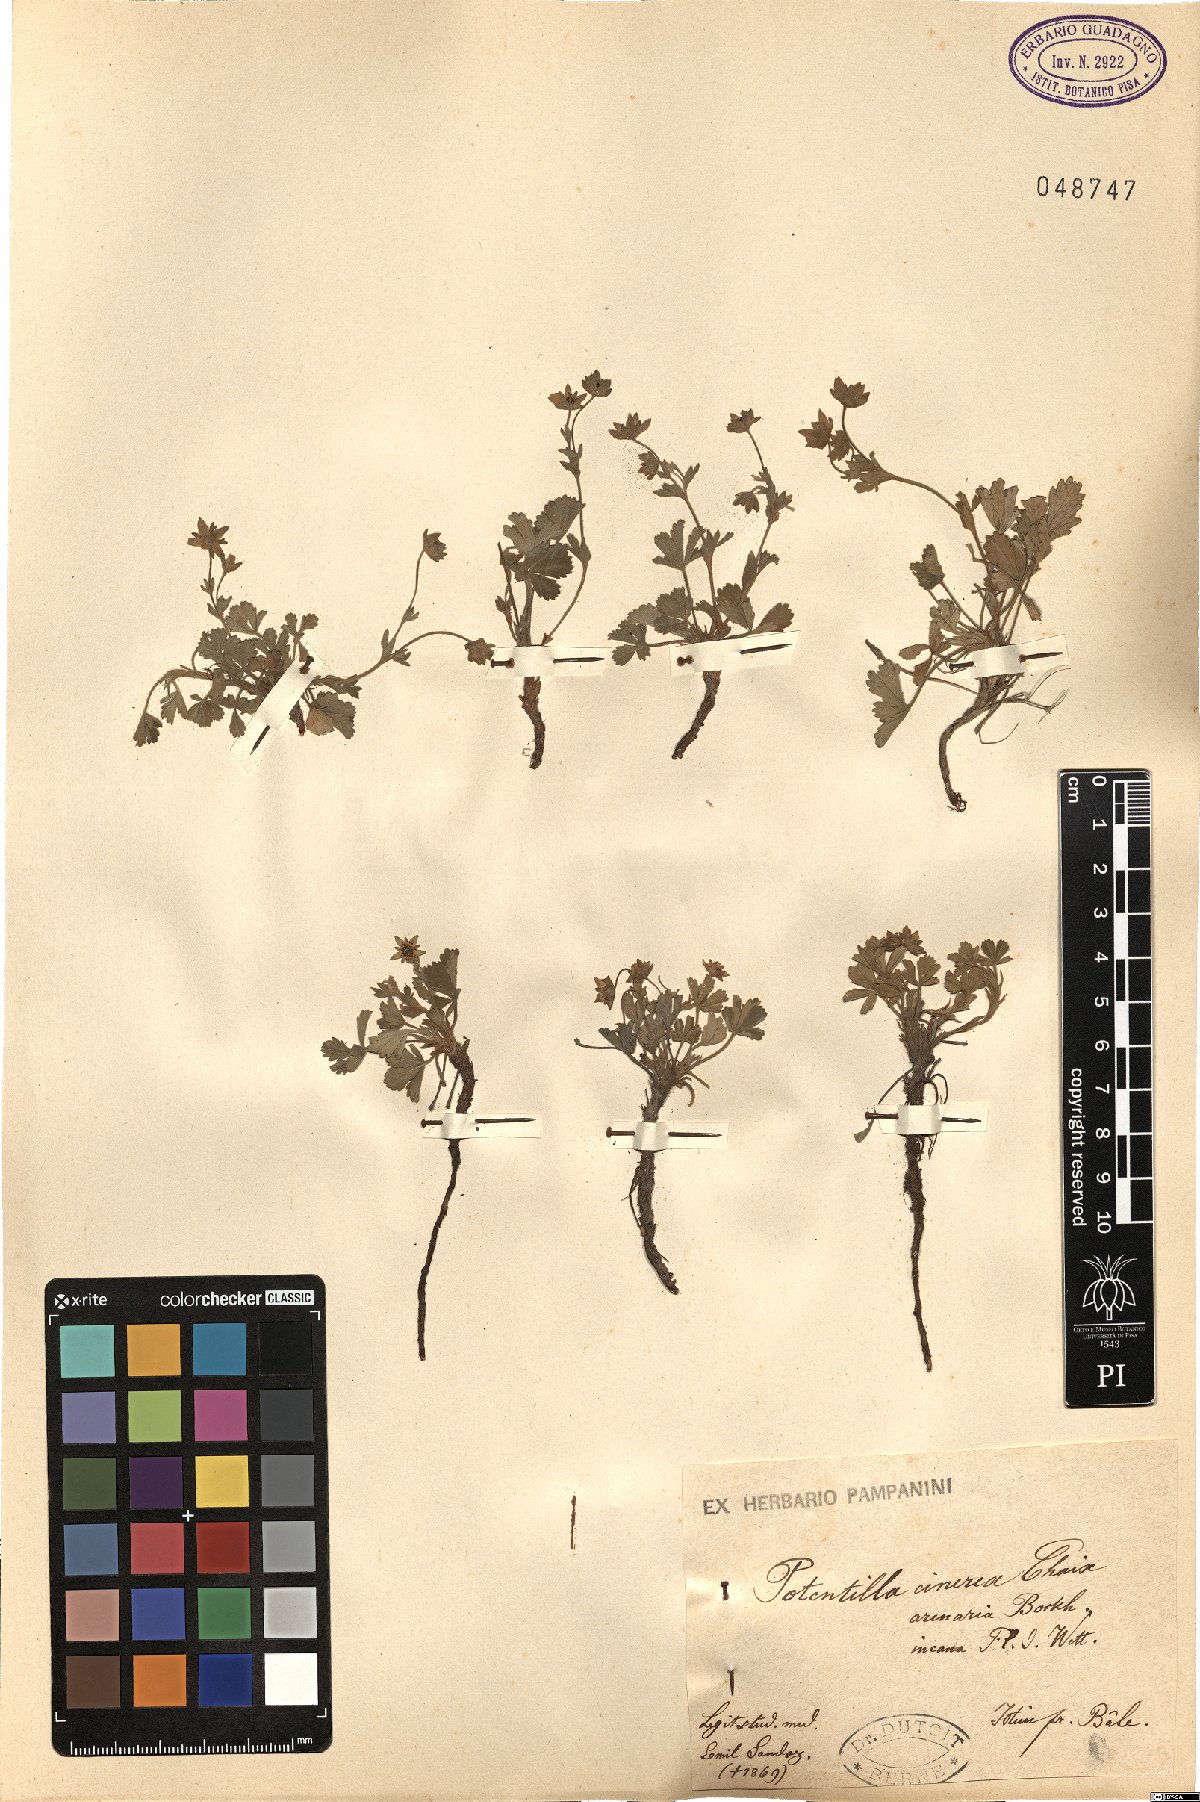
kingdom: Plantae
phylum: Tracheophyta
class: Magnoliopsida
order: Rosales
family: Rosaceae
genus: Potentilla
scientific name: Potentilla cinerea
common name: Ashy cinquefoil
